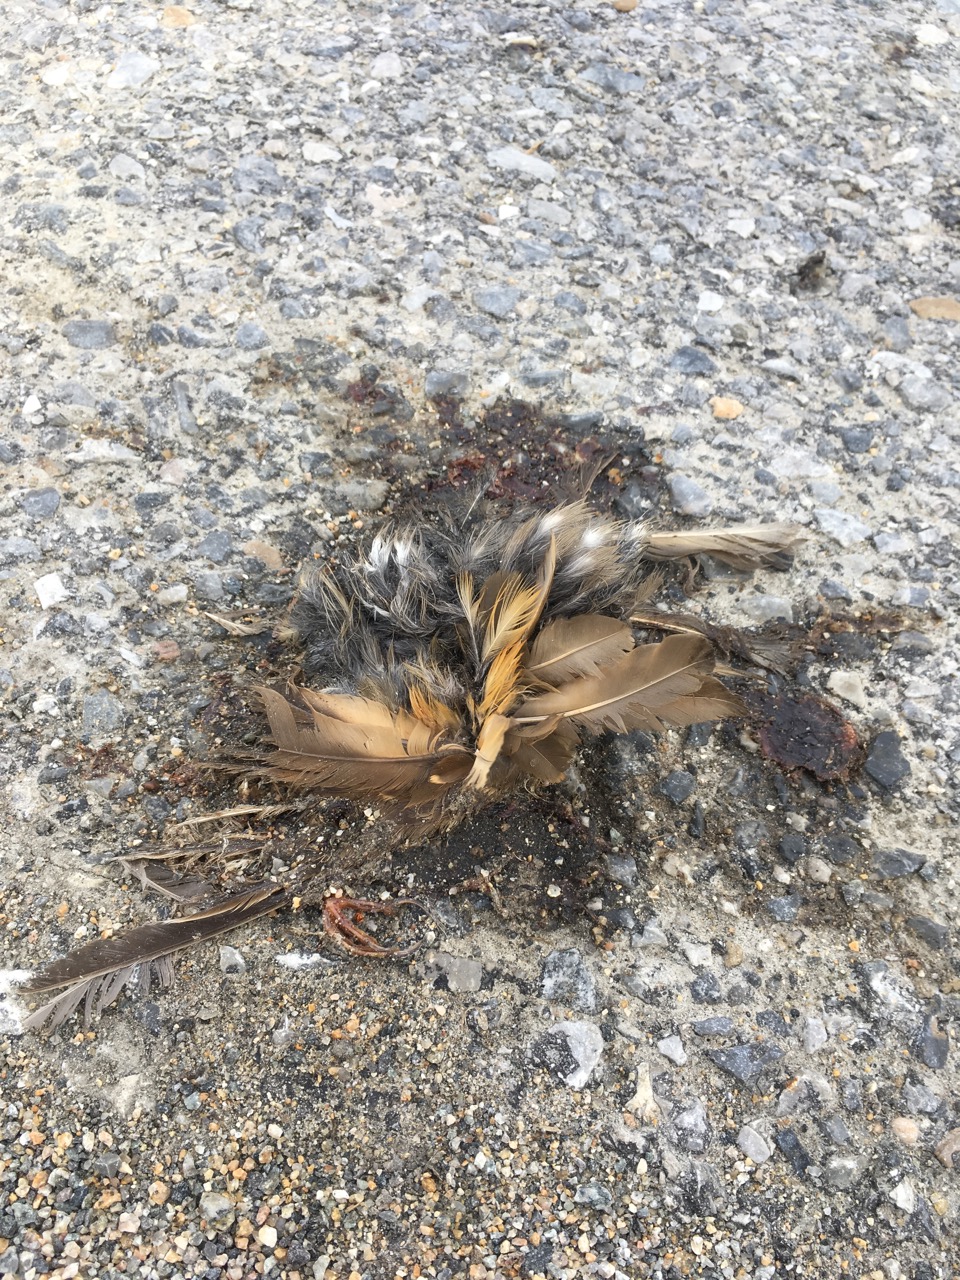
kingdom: Animalia
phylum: Chordata
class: Aves
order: Passeriformes
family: Turdidae
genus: Turdus
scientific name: Turdus philomelos
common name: Song thrush
